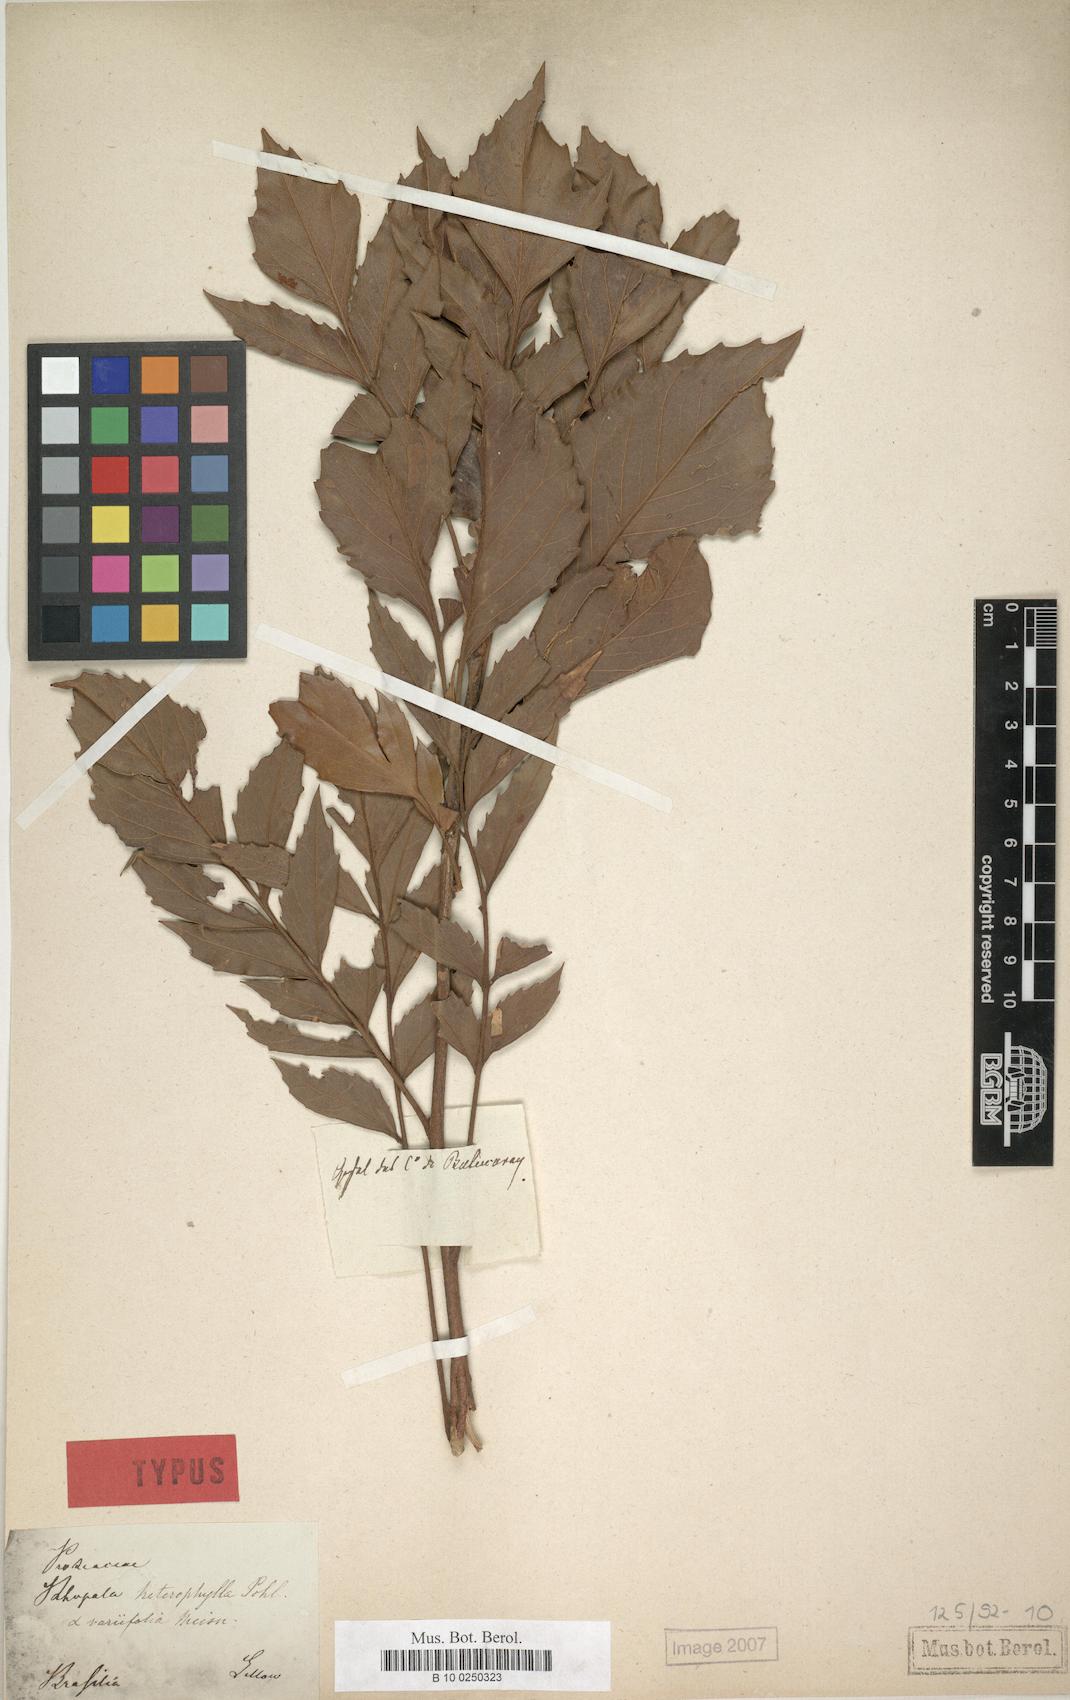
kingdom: Plantae
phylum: Tracheophyta
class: Magnoliopsida
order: Proteales
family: Proteaceae
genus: Roupala
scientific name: Roupala meisneri
